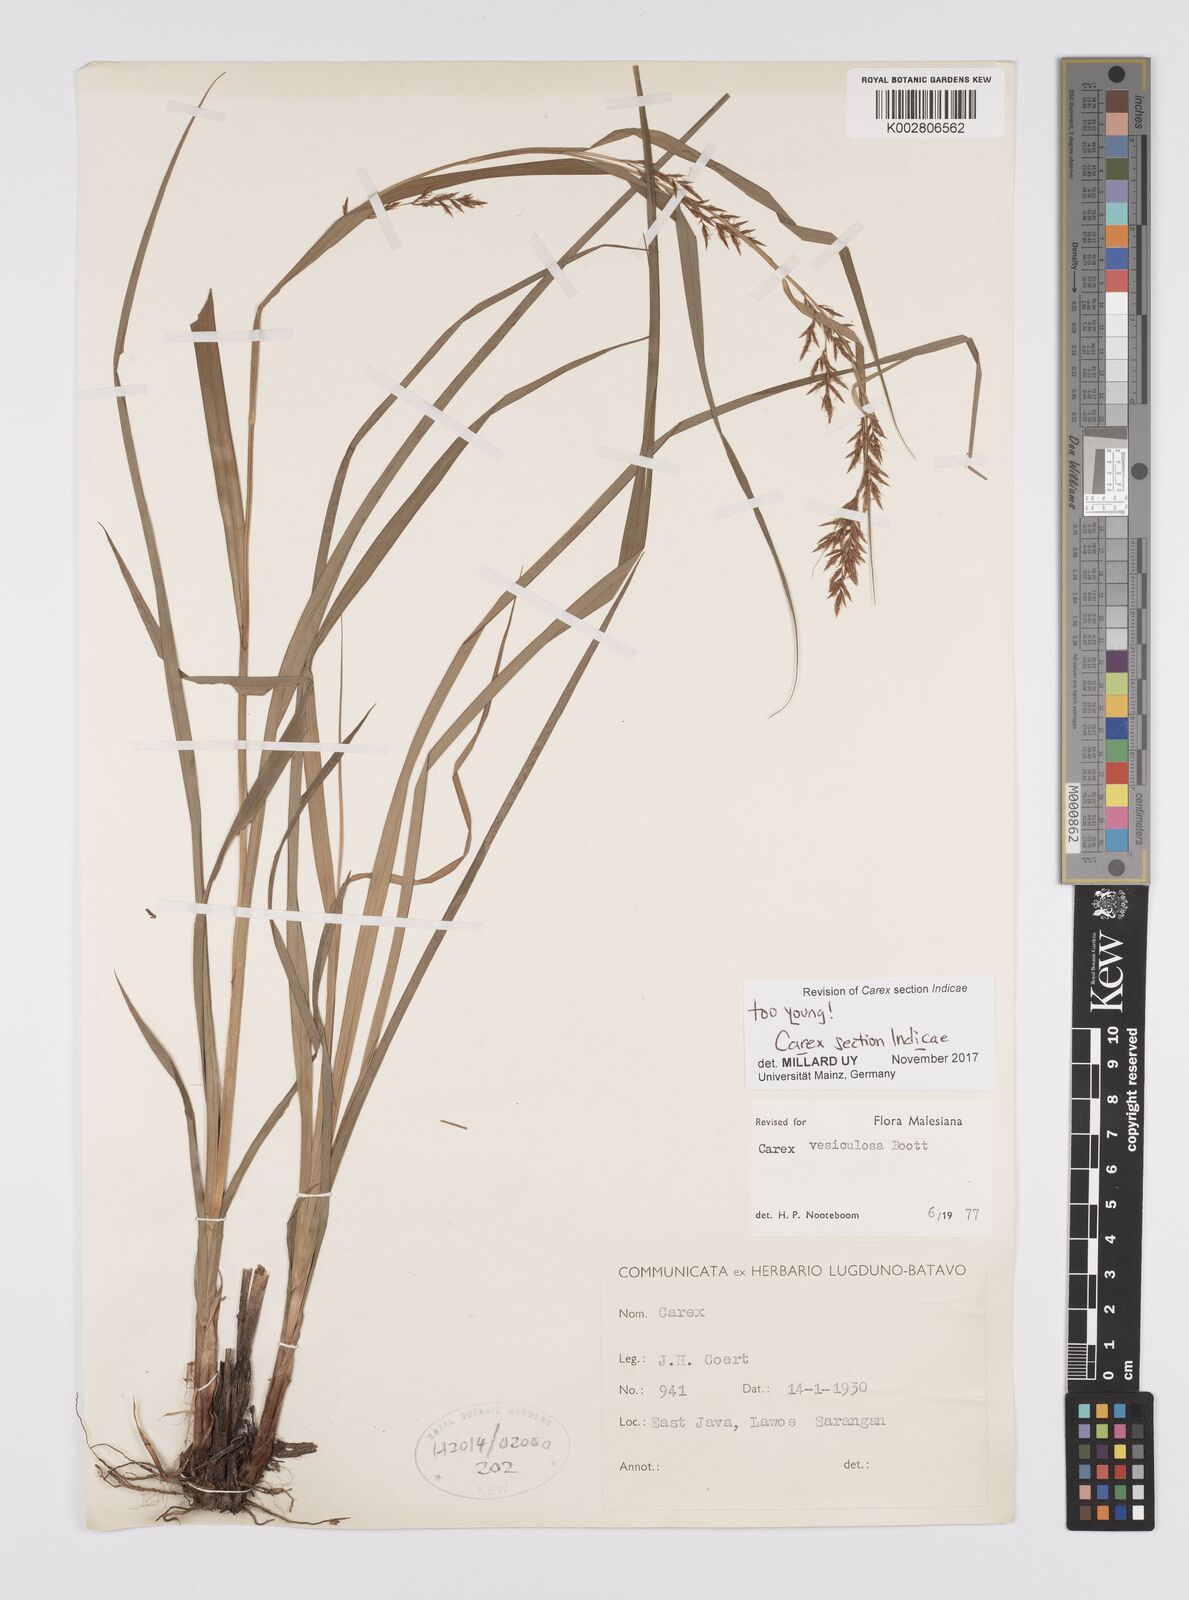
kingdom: Plantae
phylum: Tracheophyta
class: Liliopsida
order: Poales
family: Cyperaceae
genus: Carex
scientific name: Carex
